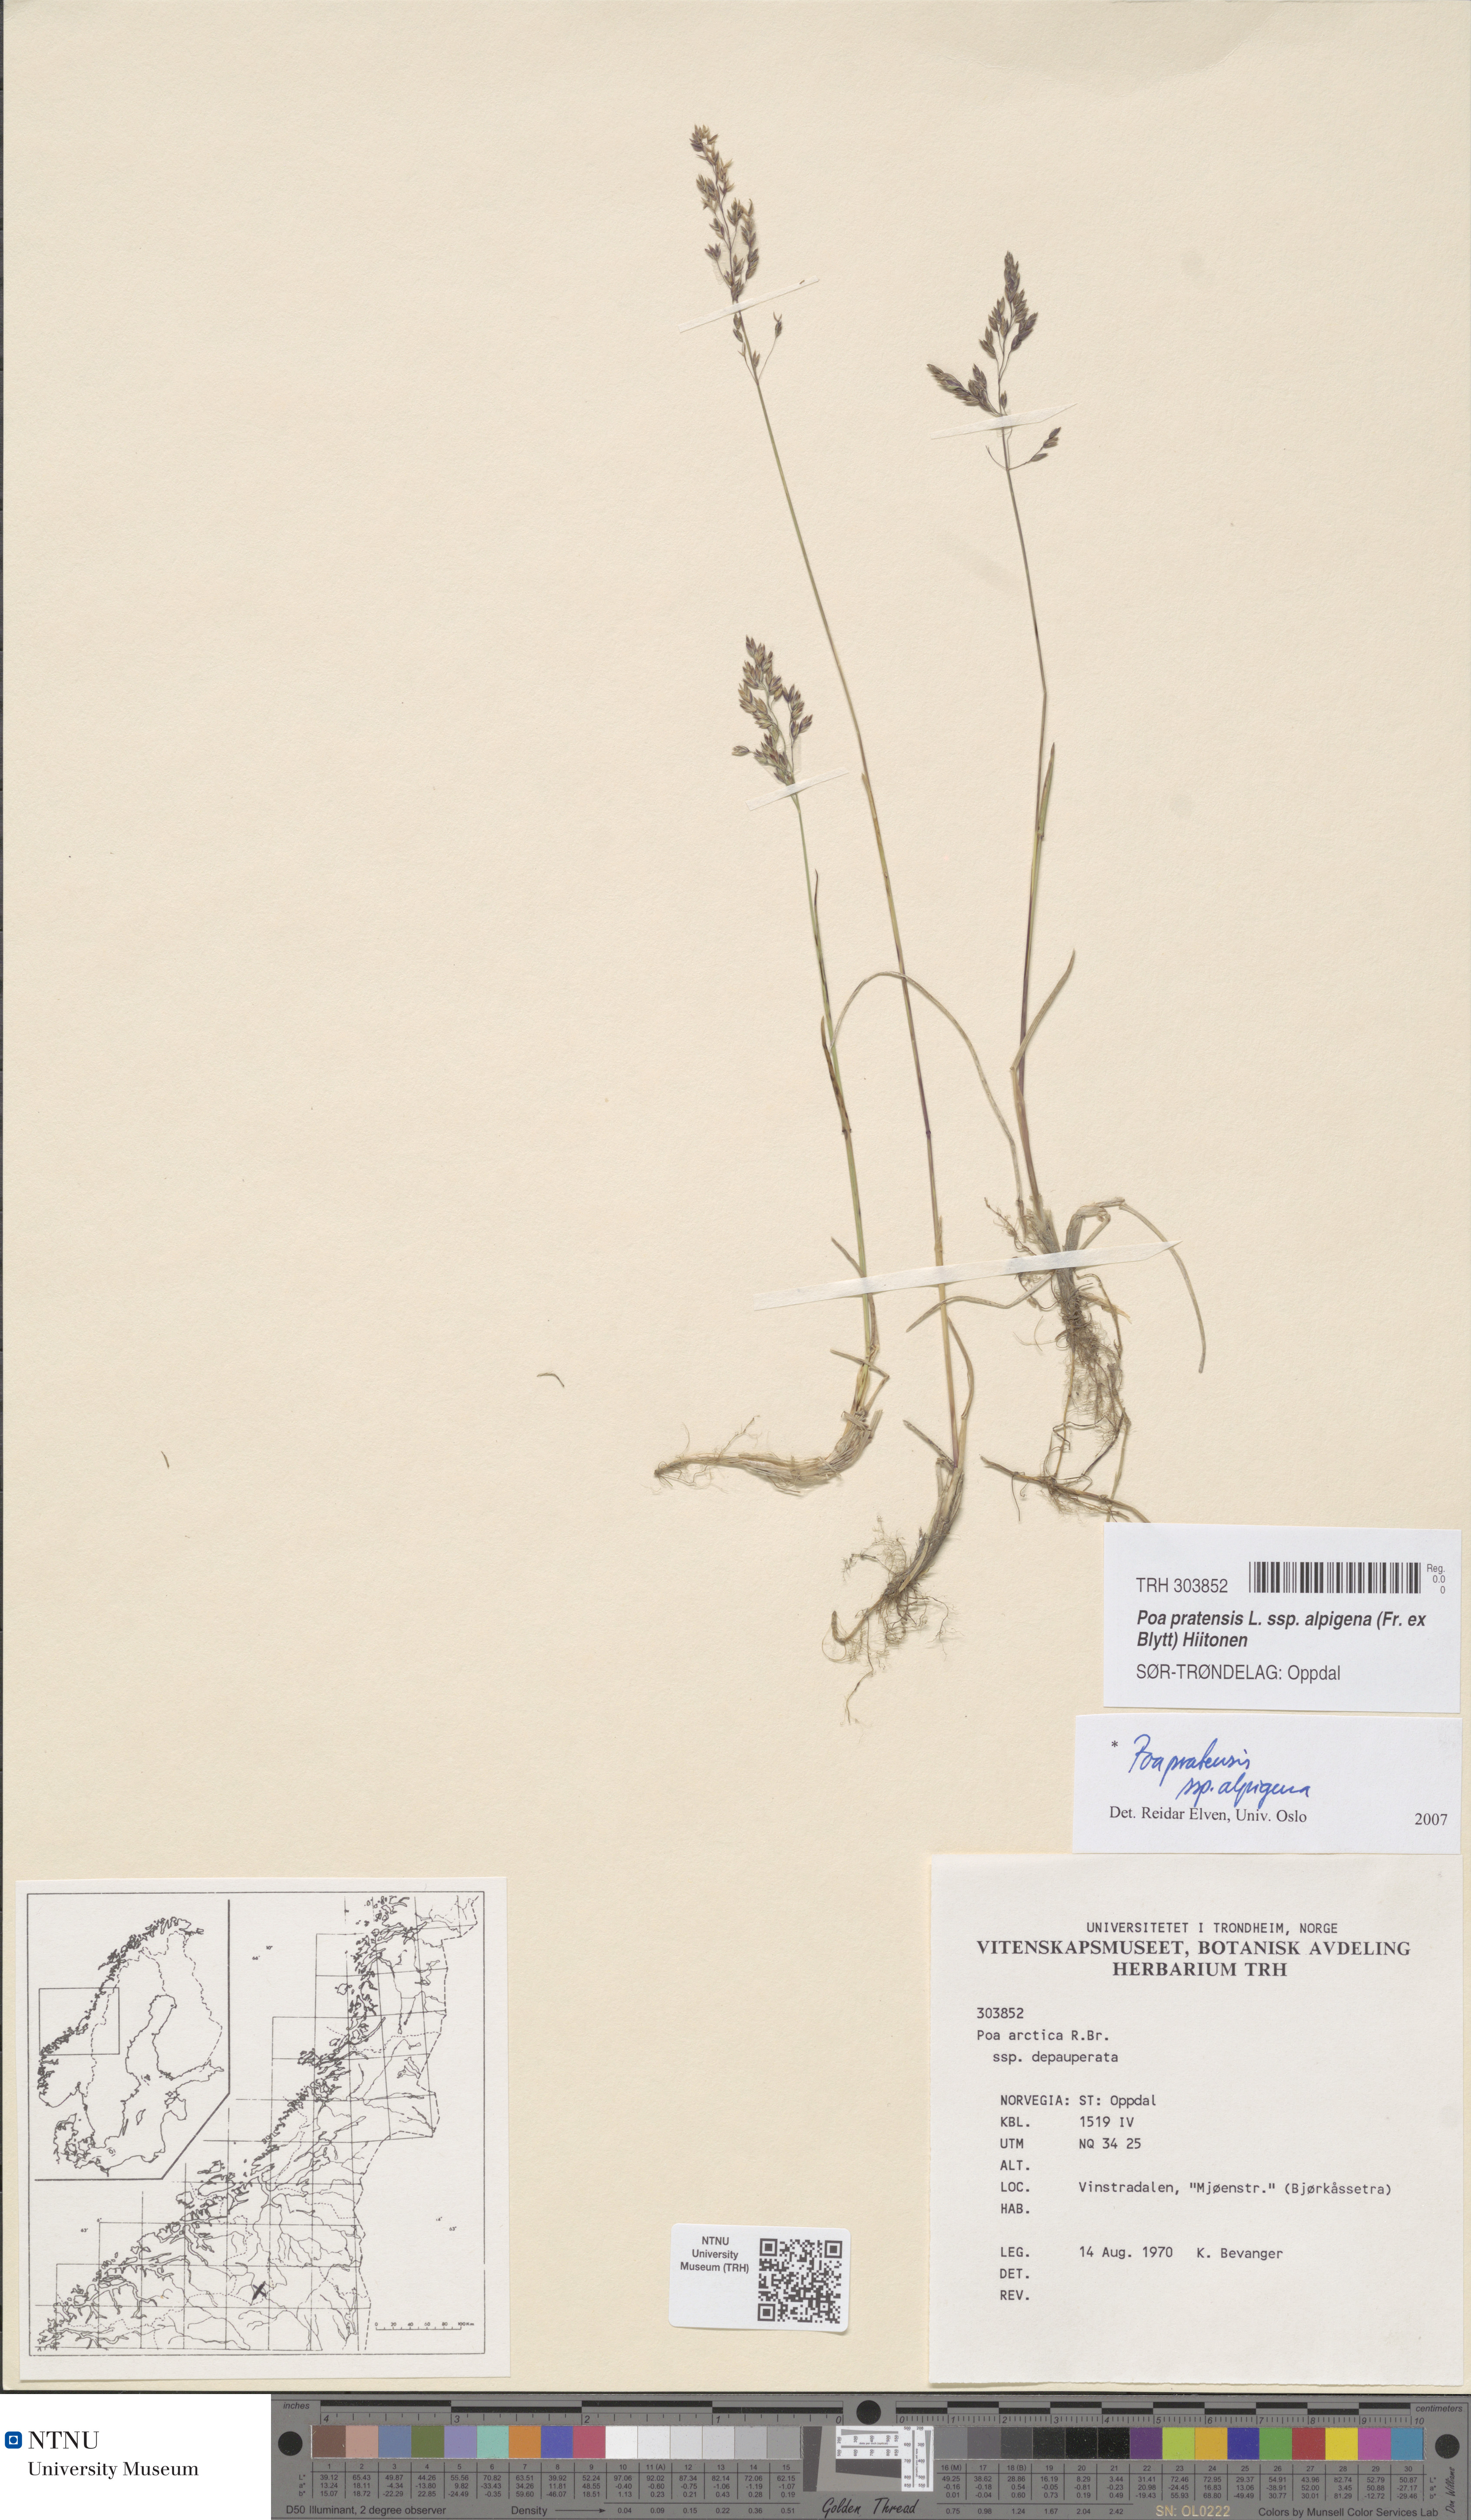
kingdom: Plantae
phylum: Tracheophyta
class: Liliopsida
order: Poales
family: Poaceae
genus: Poa
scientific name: Poa alpigena
